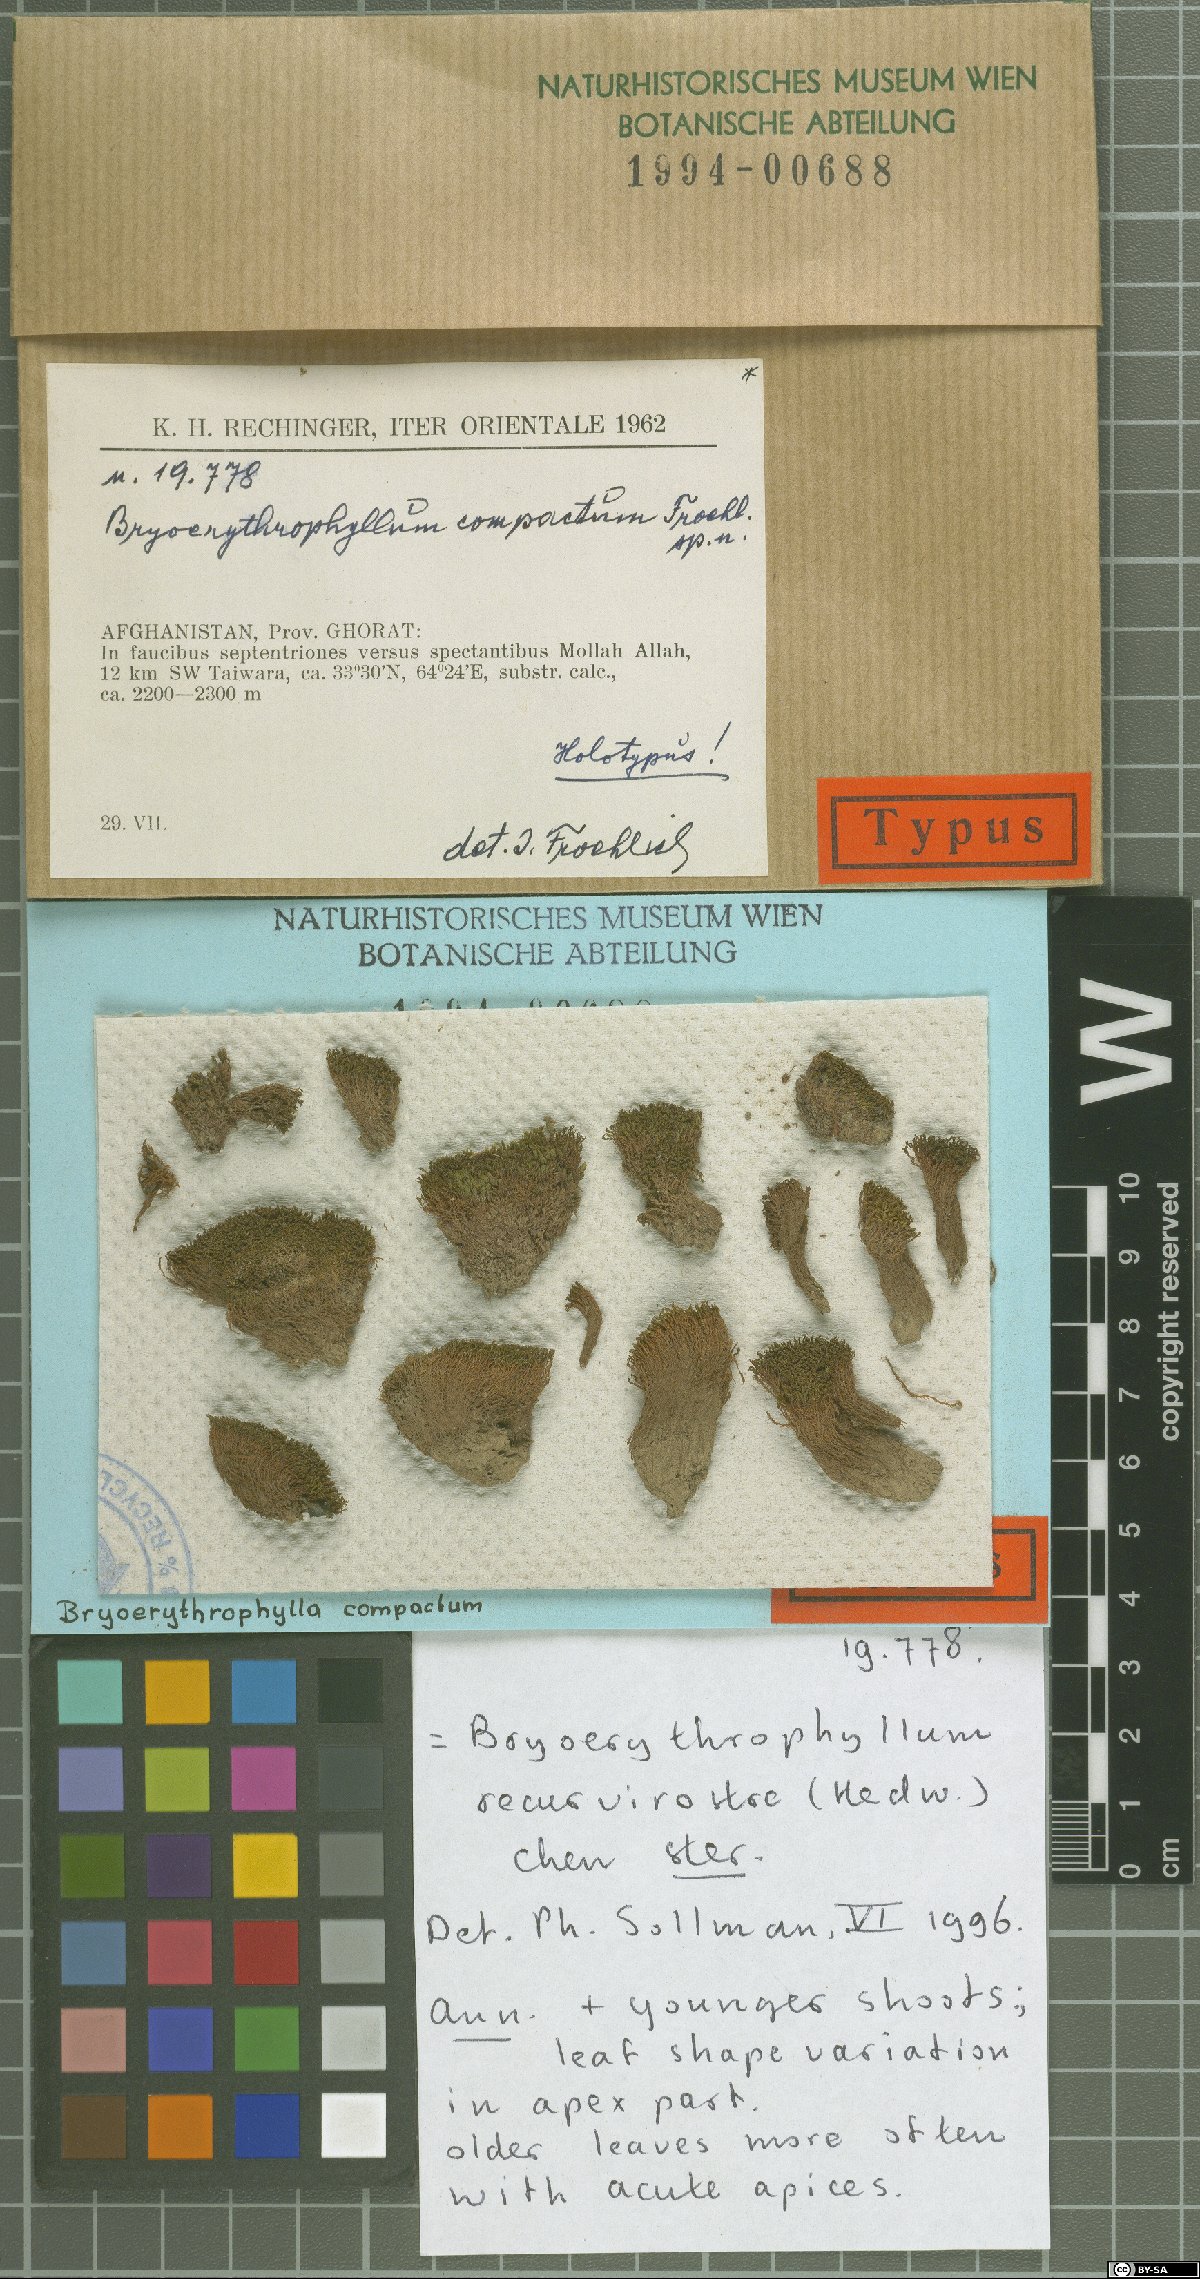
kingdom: Plantae
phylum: Bryophyta
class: Bryopsida
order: Pottiales
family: Pottiaceae
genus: Bryoerythrophyllum
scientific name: Bryoerythrophyllum rubrum
